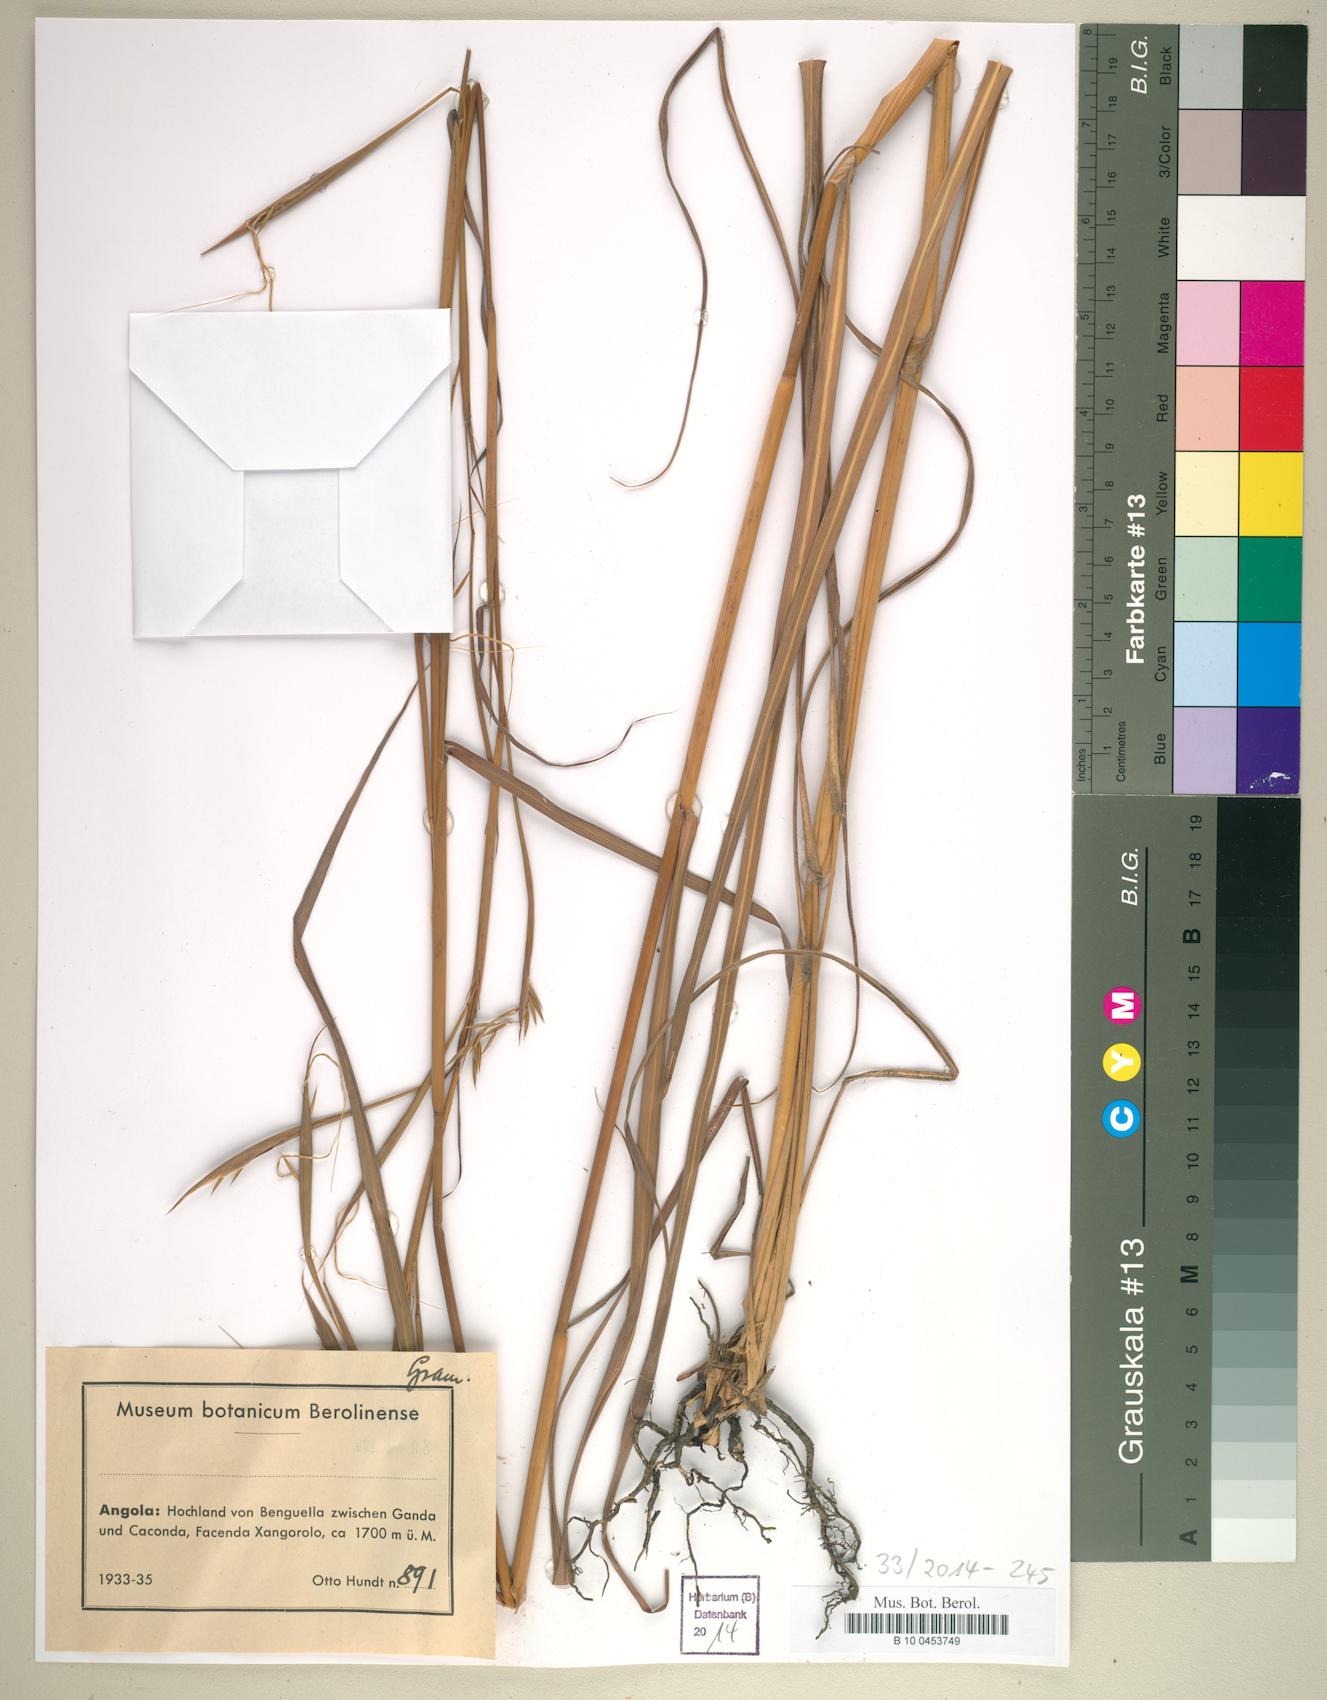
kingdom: Plantae
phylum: Tracheophyta
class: Liliopsida
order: Poales
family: Poaceae
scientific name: Poaceae
